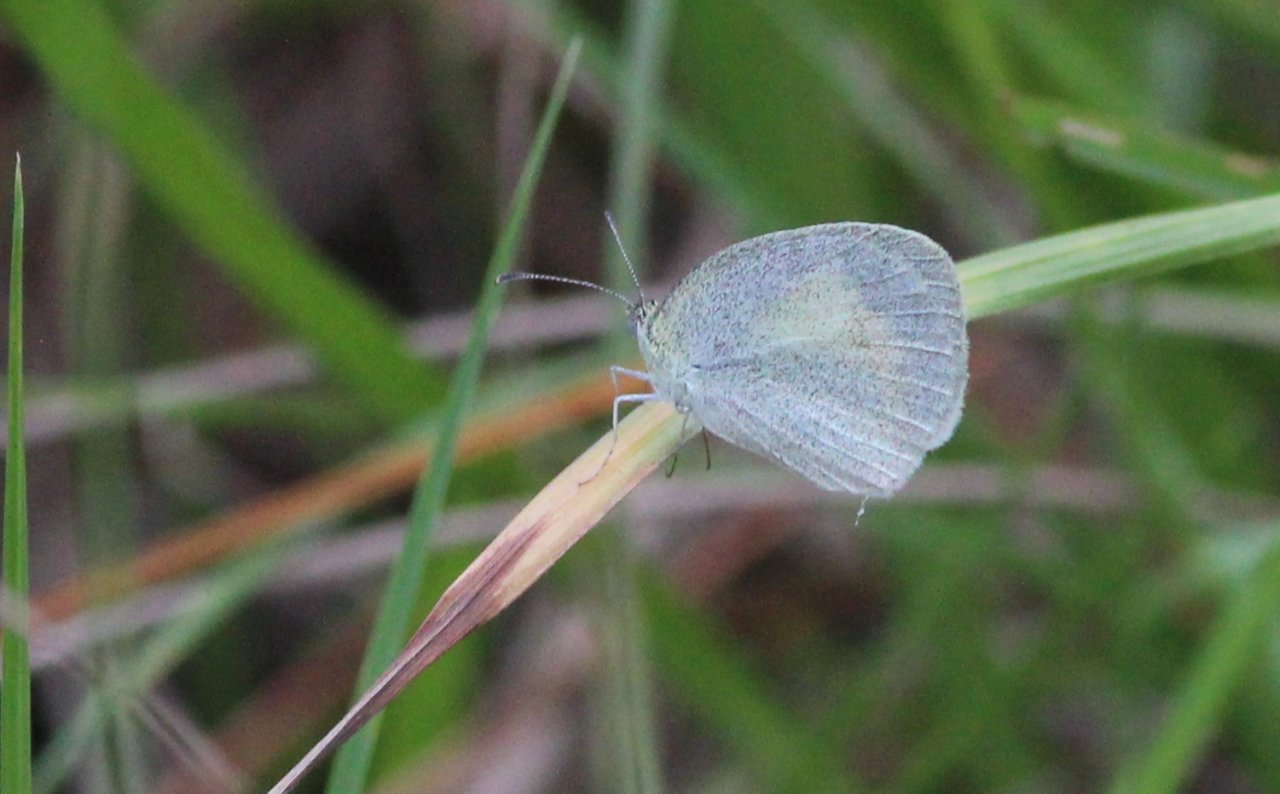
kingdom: Animalia
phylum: Arthropoda
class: Insecta
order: Lepidoptera
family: Pieridae
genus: Eurema
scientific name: Eurema daira
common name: Barred Yellow
